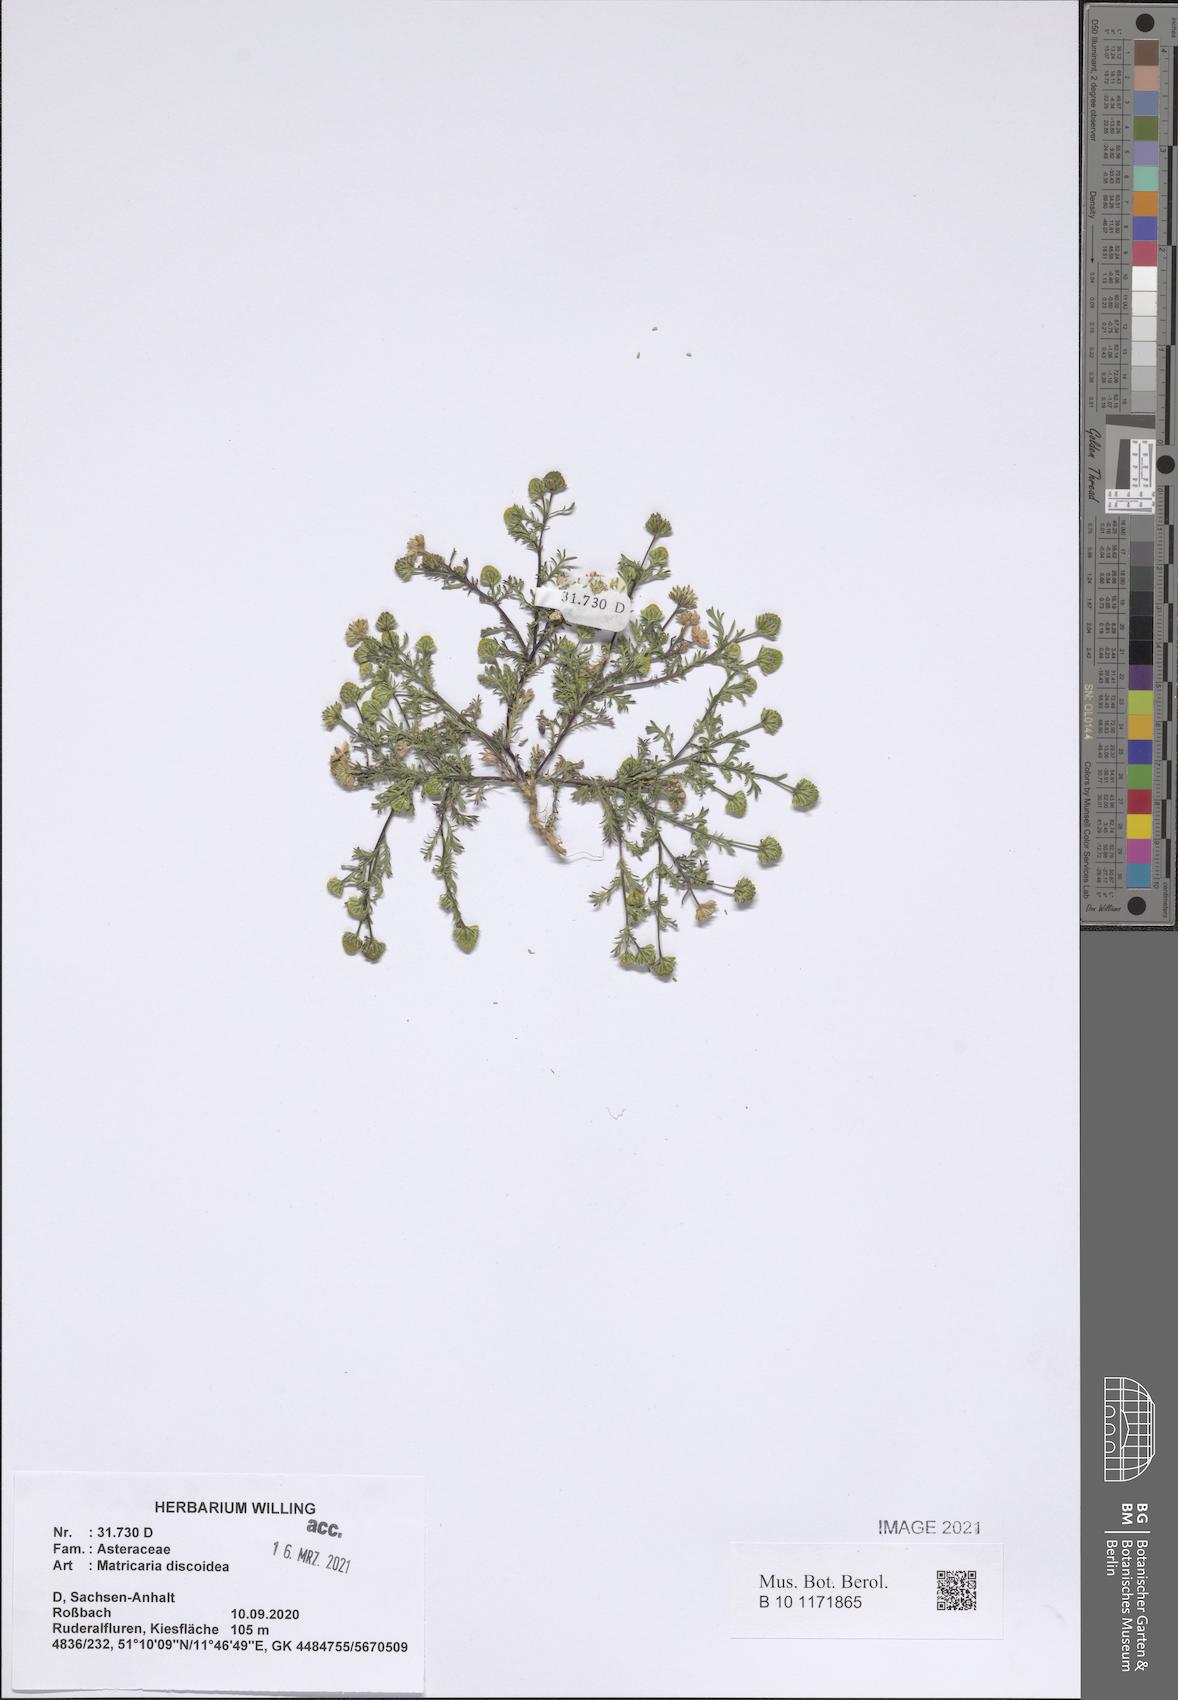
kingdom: Plantae
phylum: Tracheophyta
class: Magnoliopsida
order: Asterales
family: Asteraceae
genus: Matricaria
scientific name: Matricaria discoidea
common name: Disc mayweed
